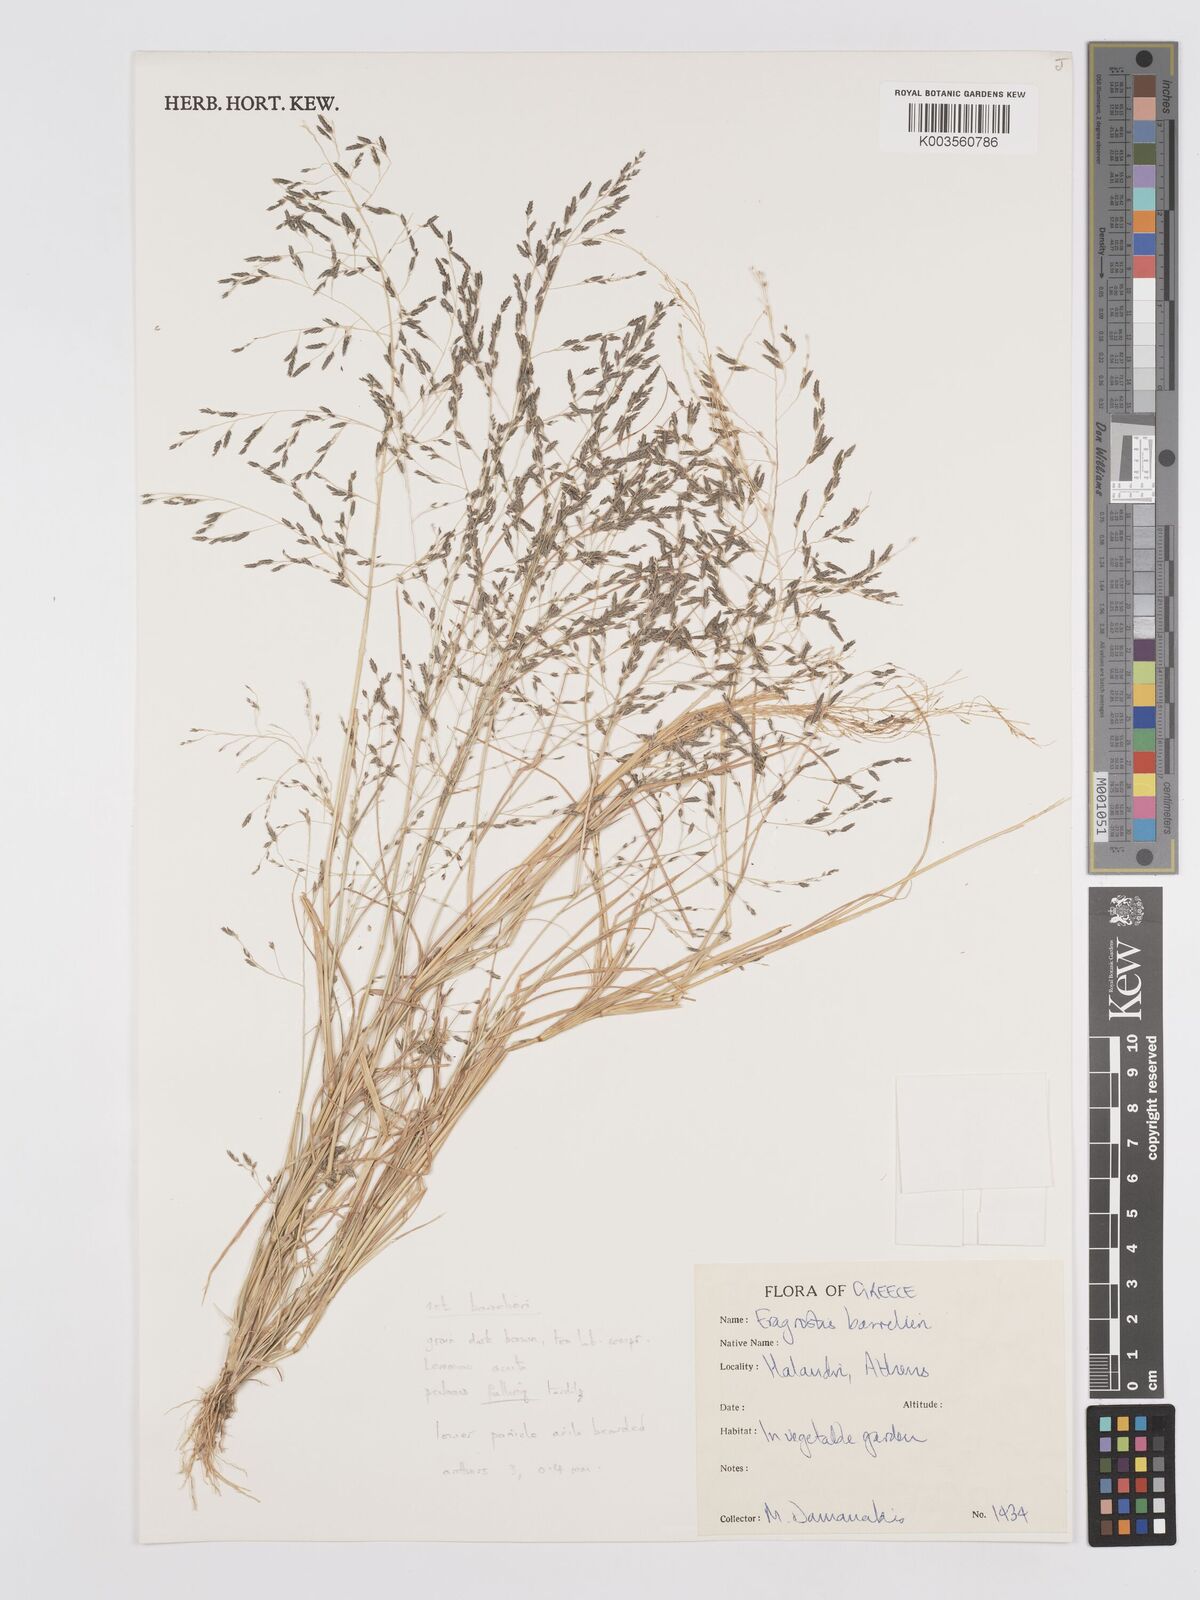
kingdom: Plantae
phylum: Tracheophyta
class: Liliopsida
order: Poales
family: Poaceae
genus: Eragrostis
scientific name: Eragrostis barrelieri
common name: Mediterranean lovegrass
